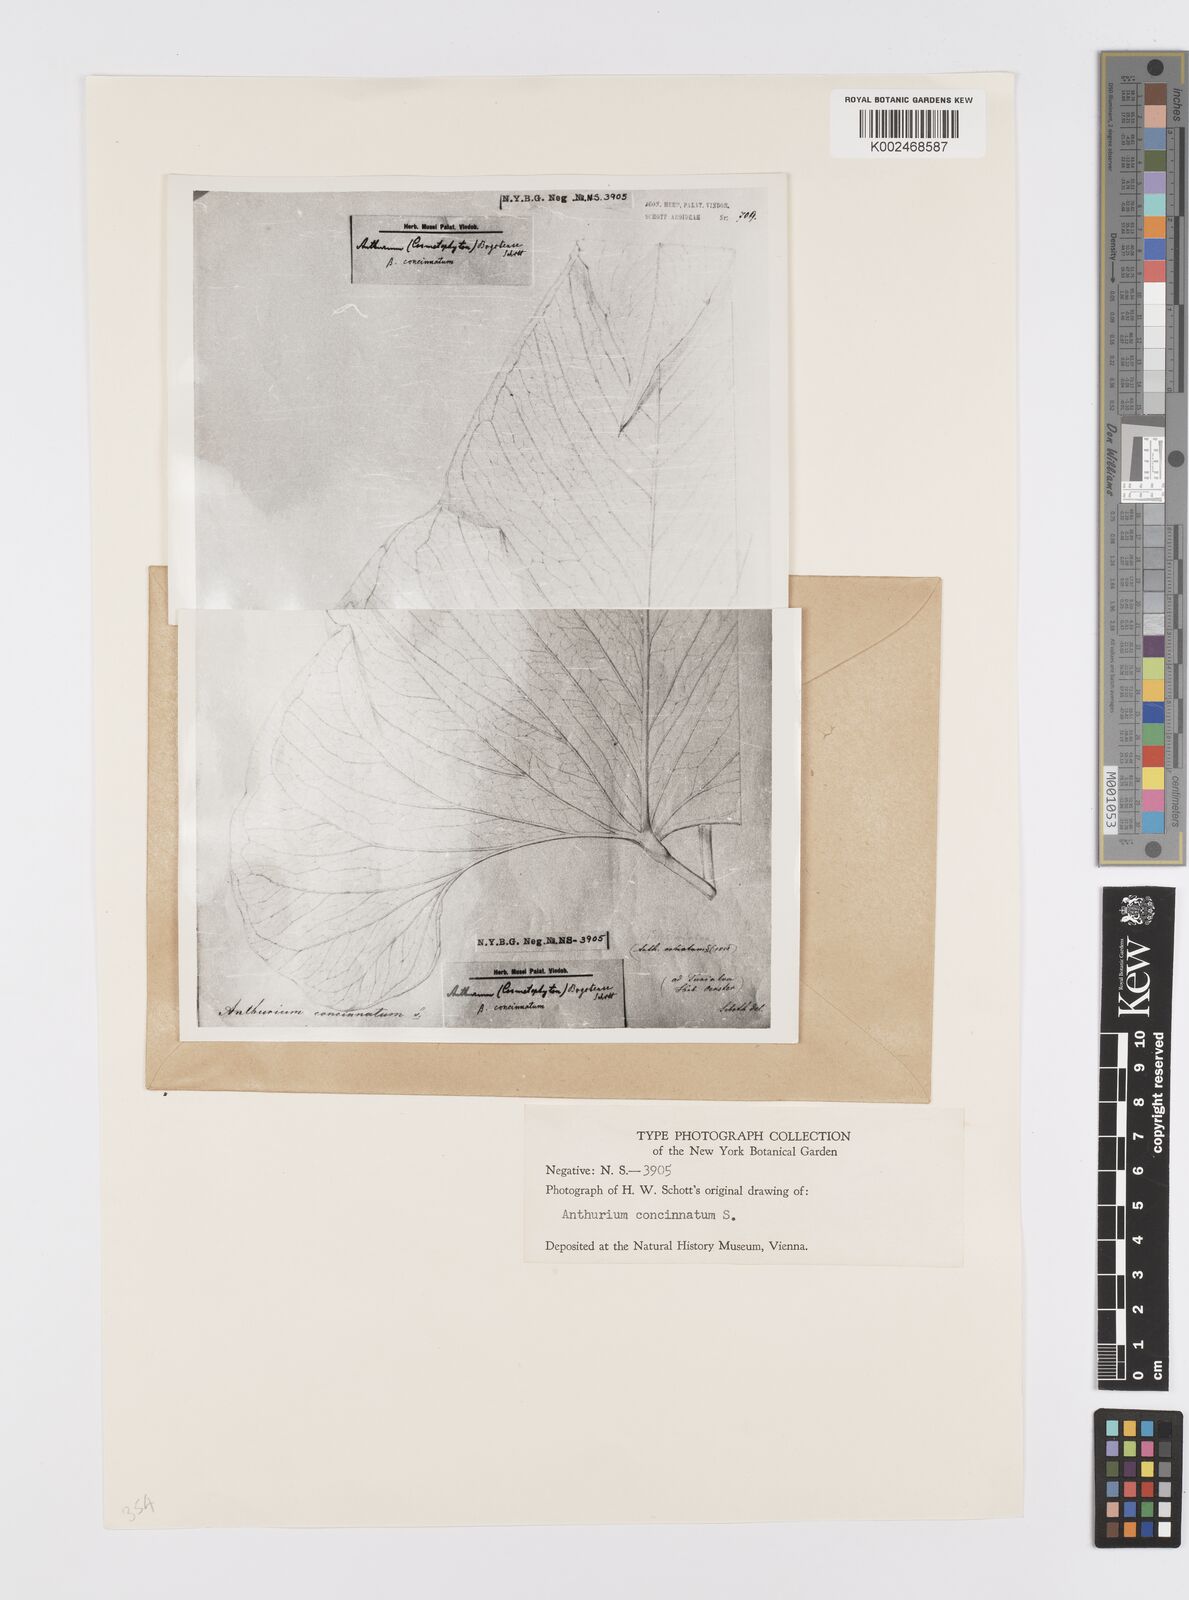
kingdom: Plantae
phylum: Tracheophyta
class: Liliopsida
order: Alismatales
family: Araceae
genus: Anthurium
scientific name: Anthurium concinnatum
